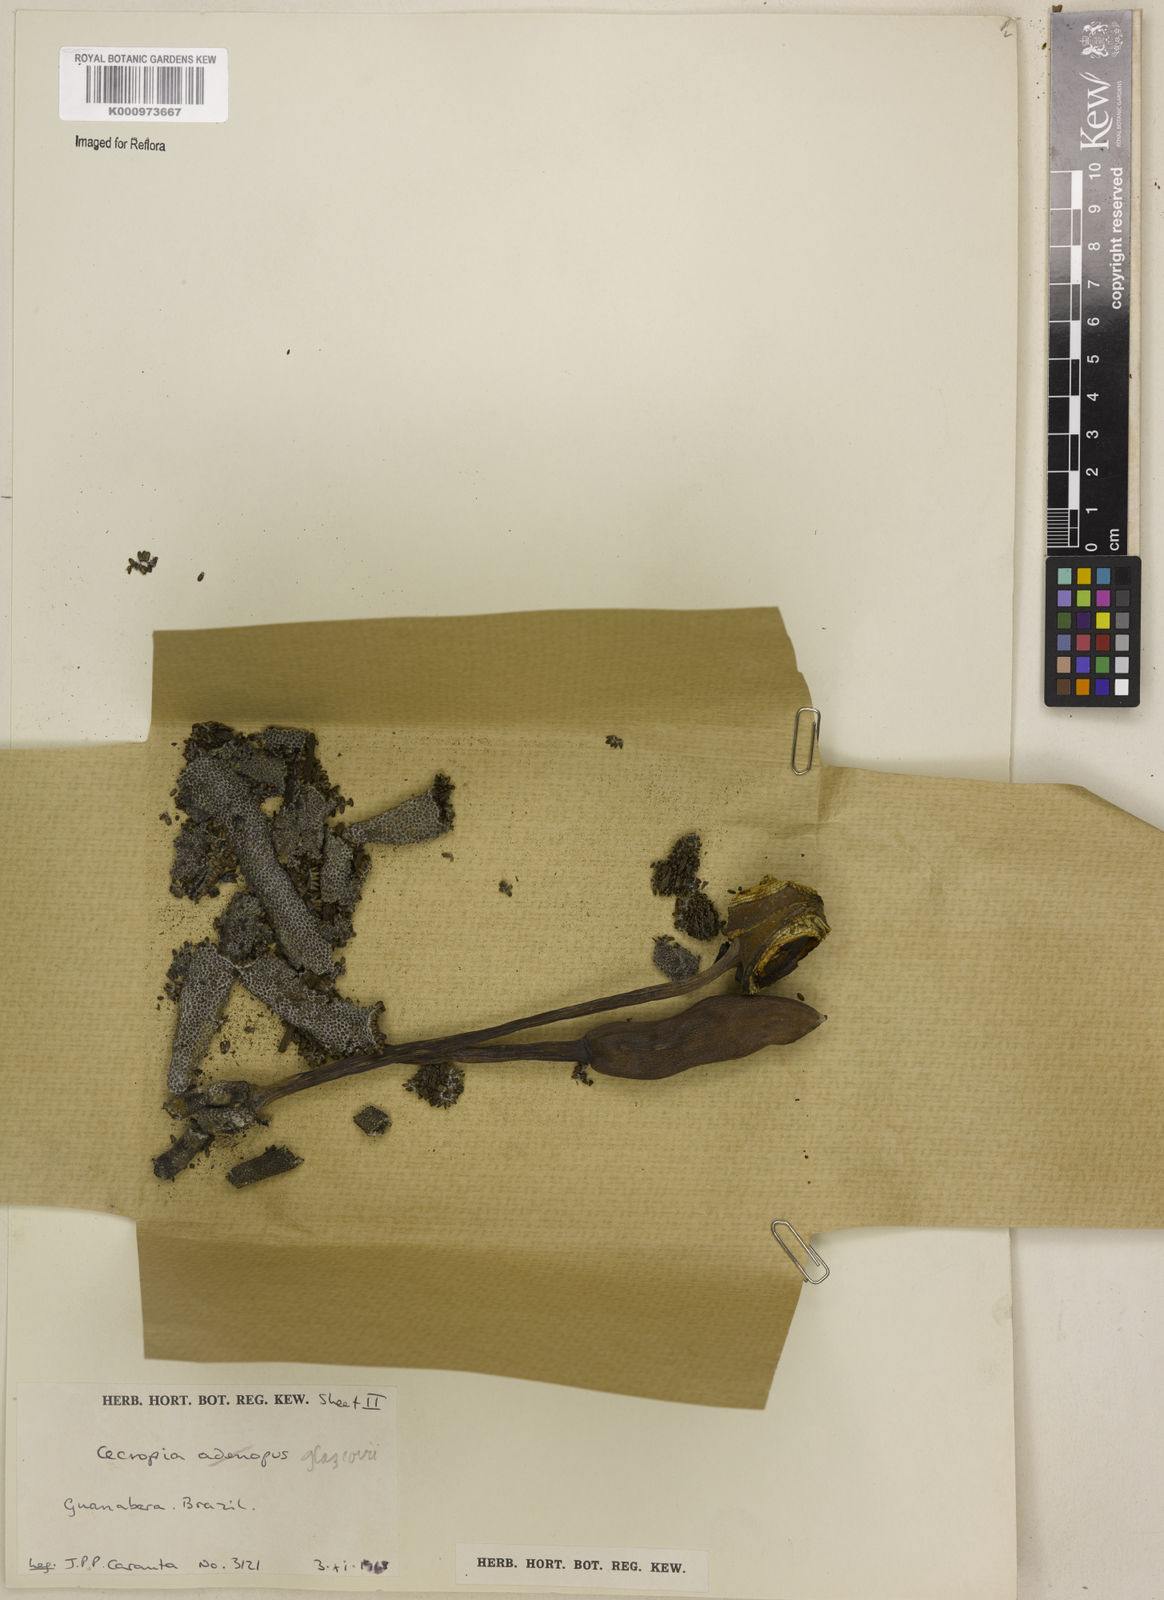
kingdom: Plantae
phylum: Tracheophyta
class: Magnoliopsida
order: Rosales
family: Urticaceae
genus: Cecropia
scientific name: Cecropia glaziovii
